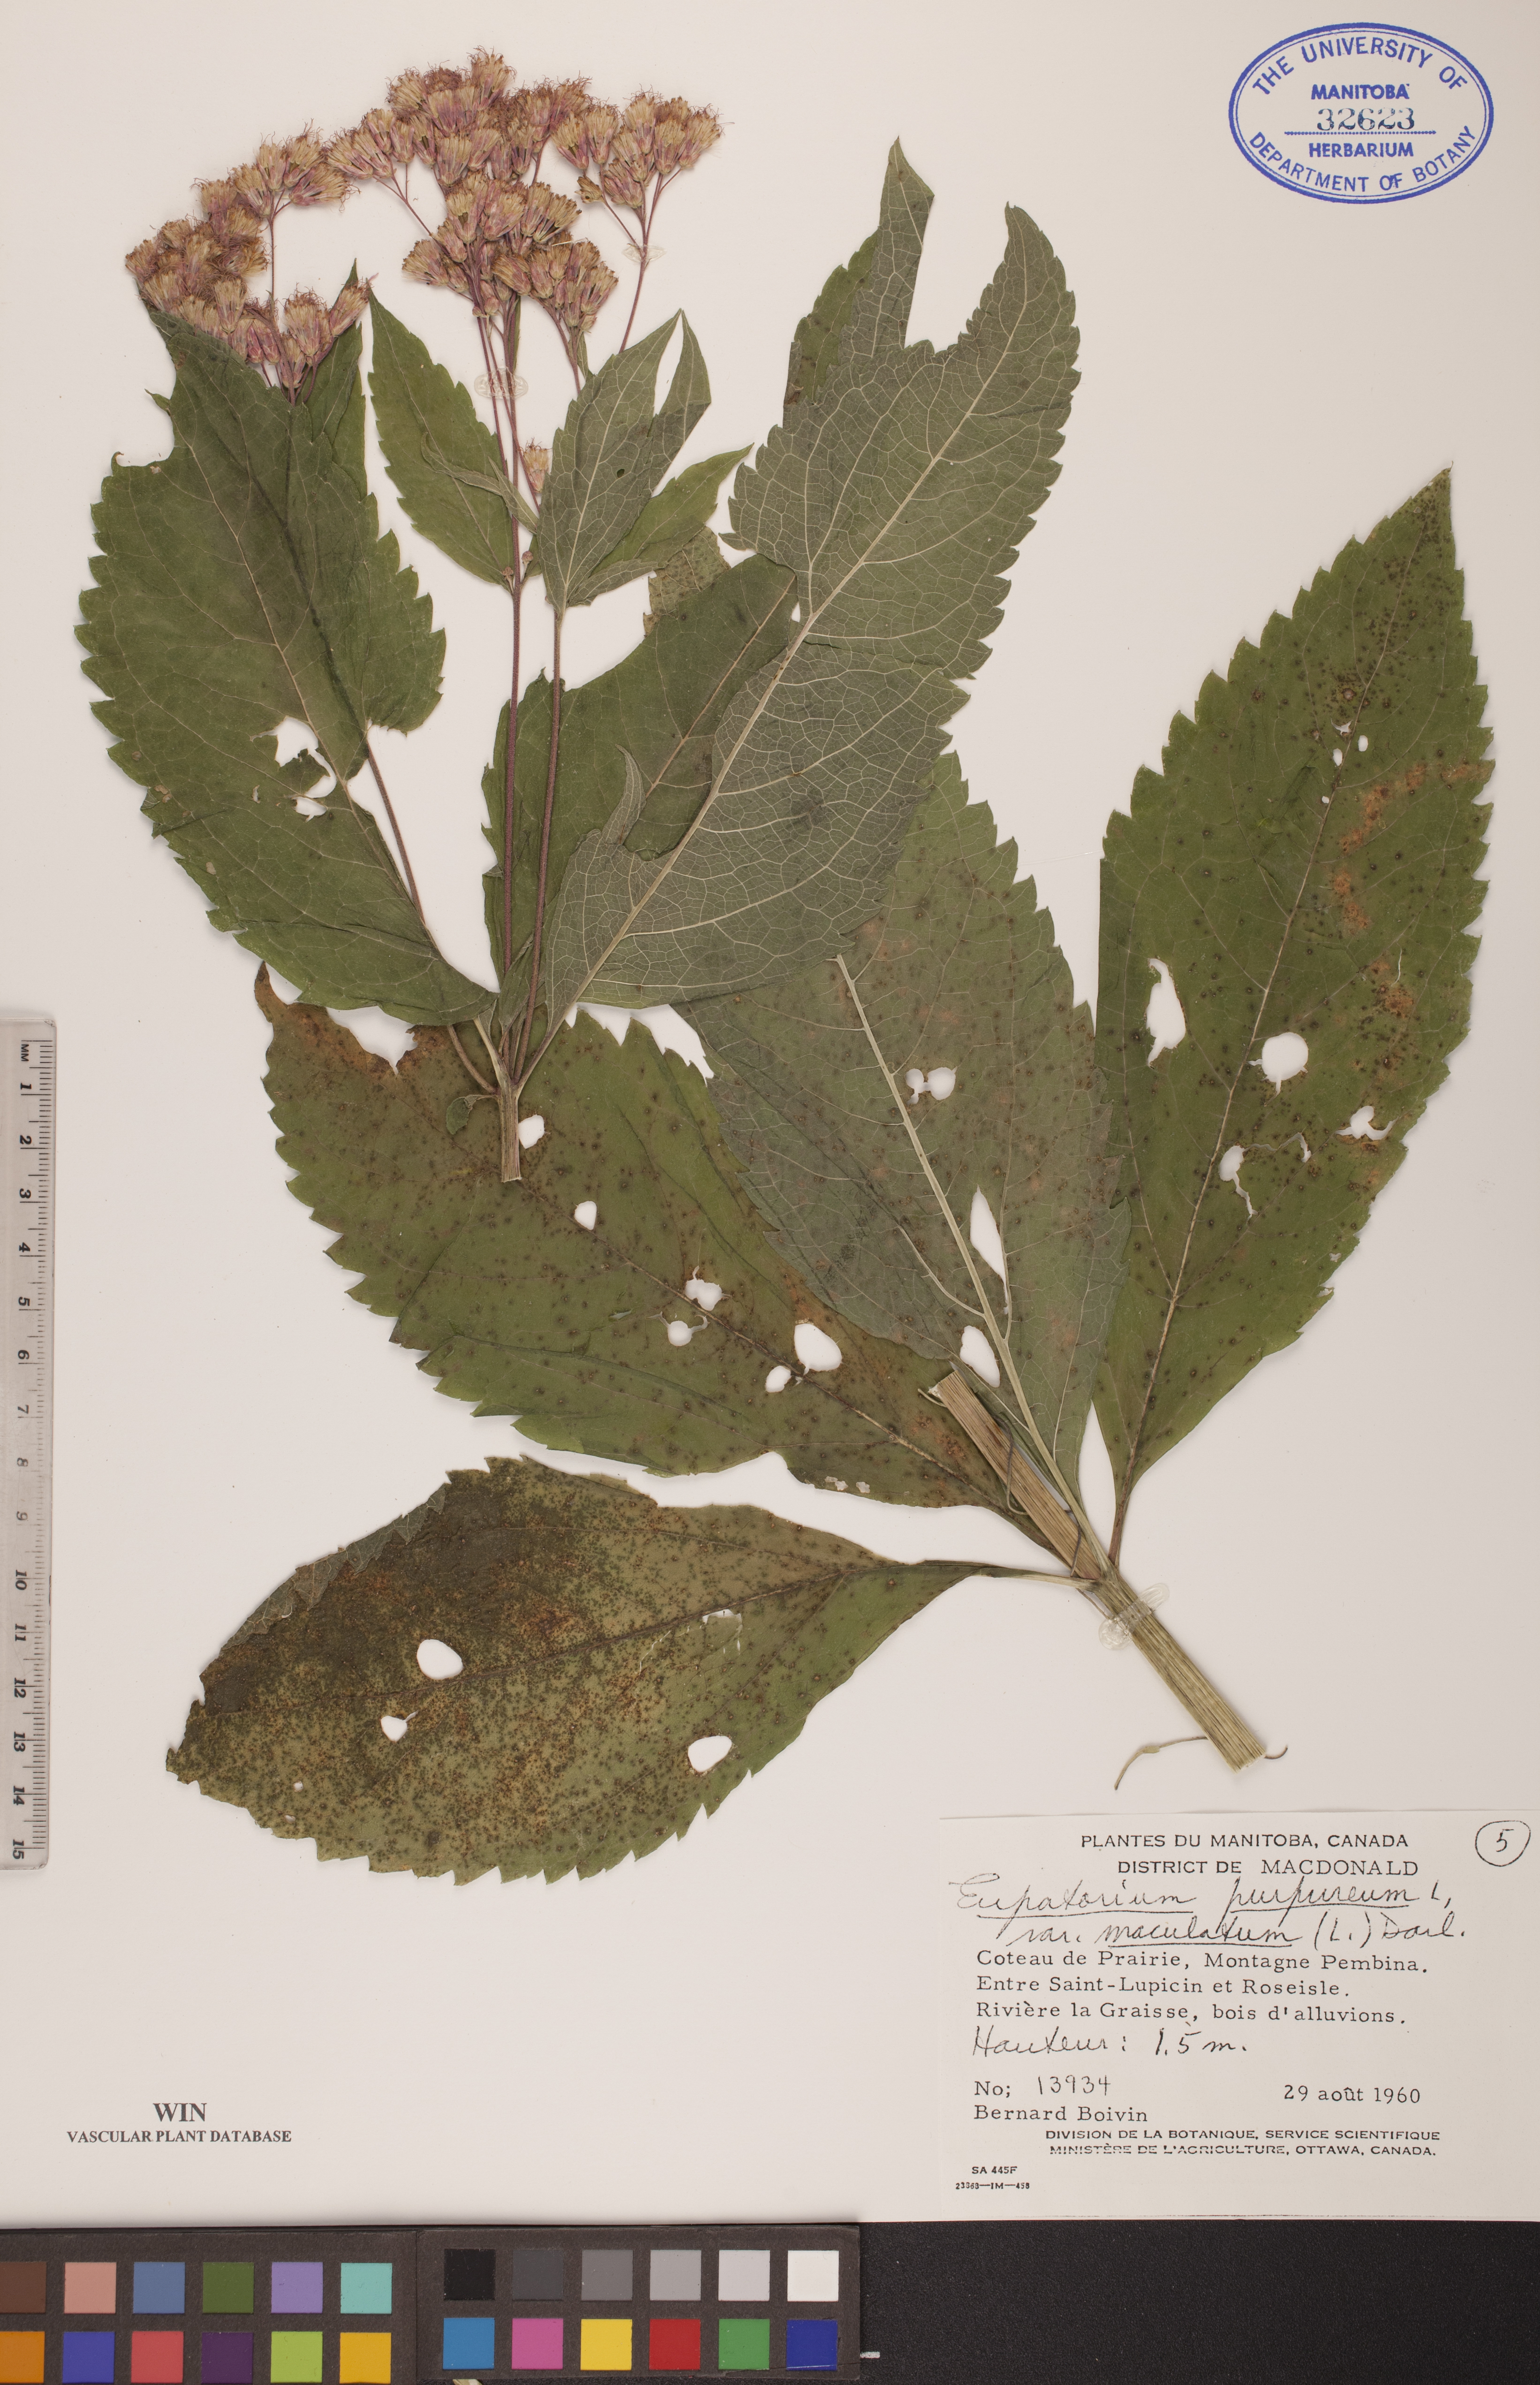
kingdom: Plantae
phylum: Tracheophyta
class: Magnoliopsida
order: Asterales
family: Asteraceae
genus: Eutrochium
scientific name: Eutrochium maculatum
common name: Spotted joe pye weed
